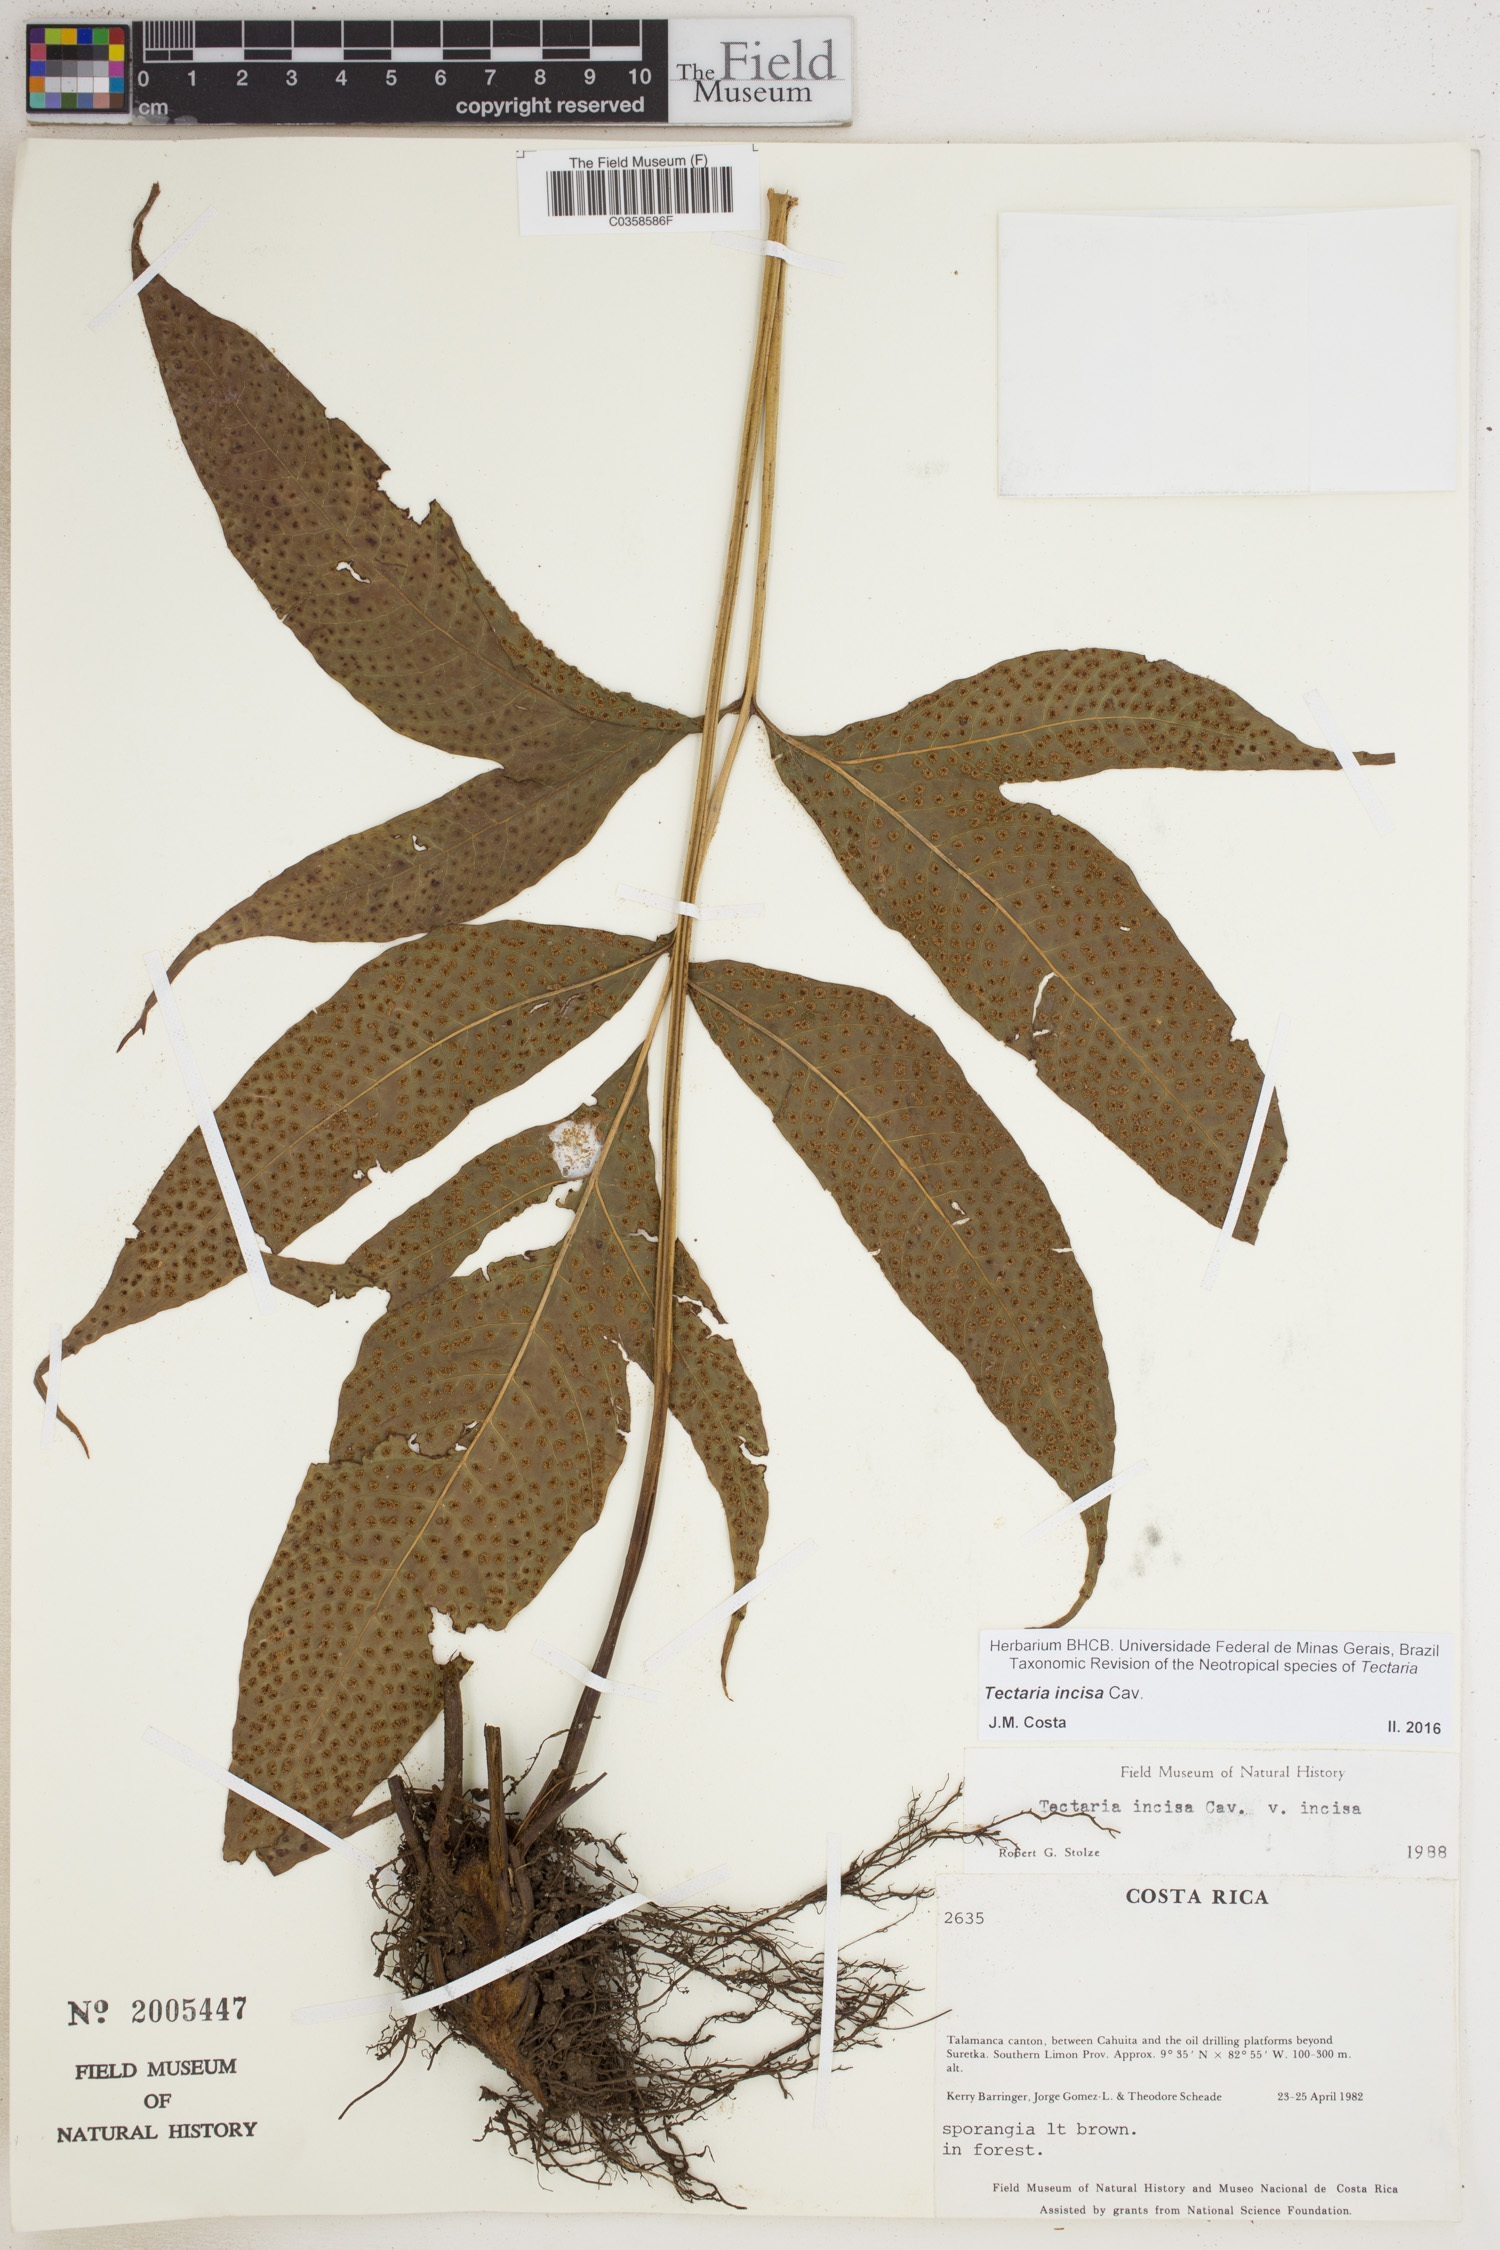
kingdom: Plantae
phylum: Tracheophyta
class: Polypodiopsida
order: Polypodiales
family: Tectariaceae
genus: Tectaria
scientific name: Tectaria incisa
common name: Incised halberd fern
